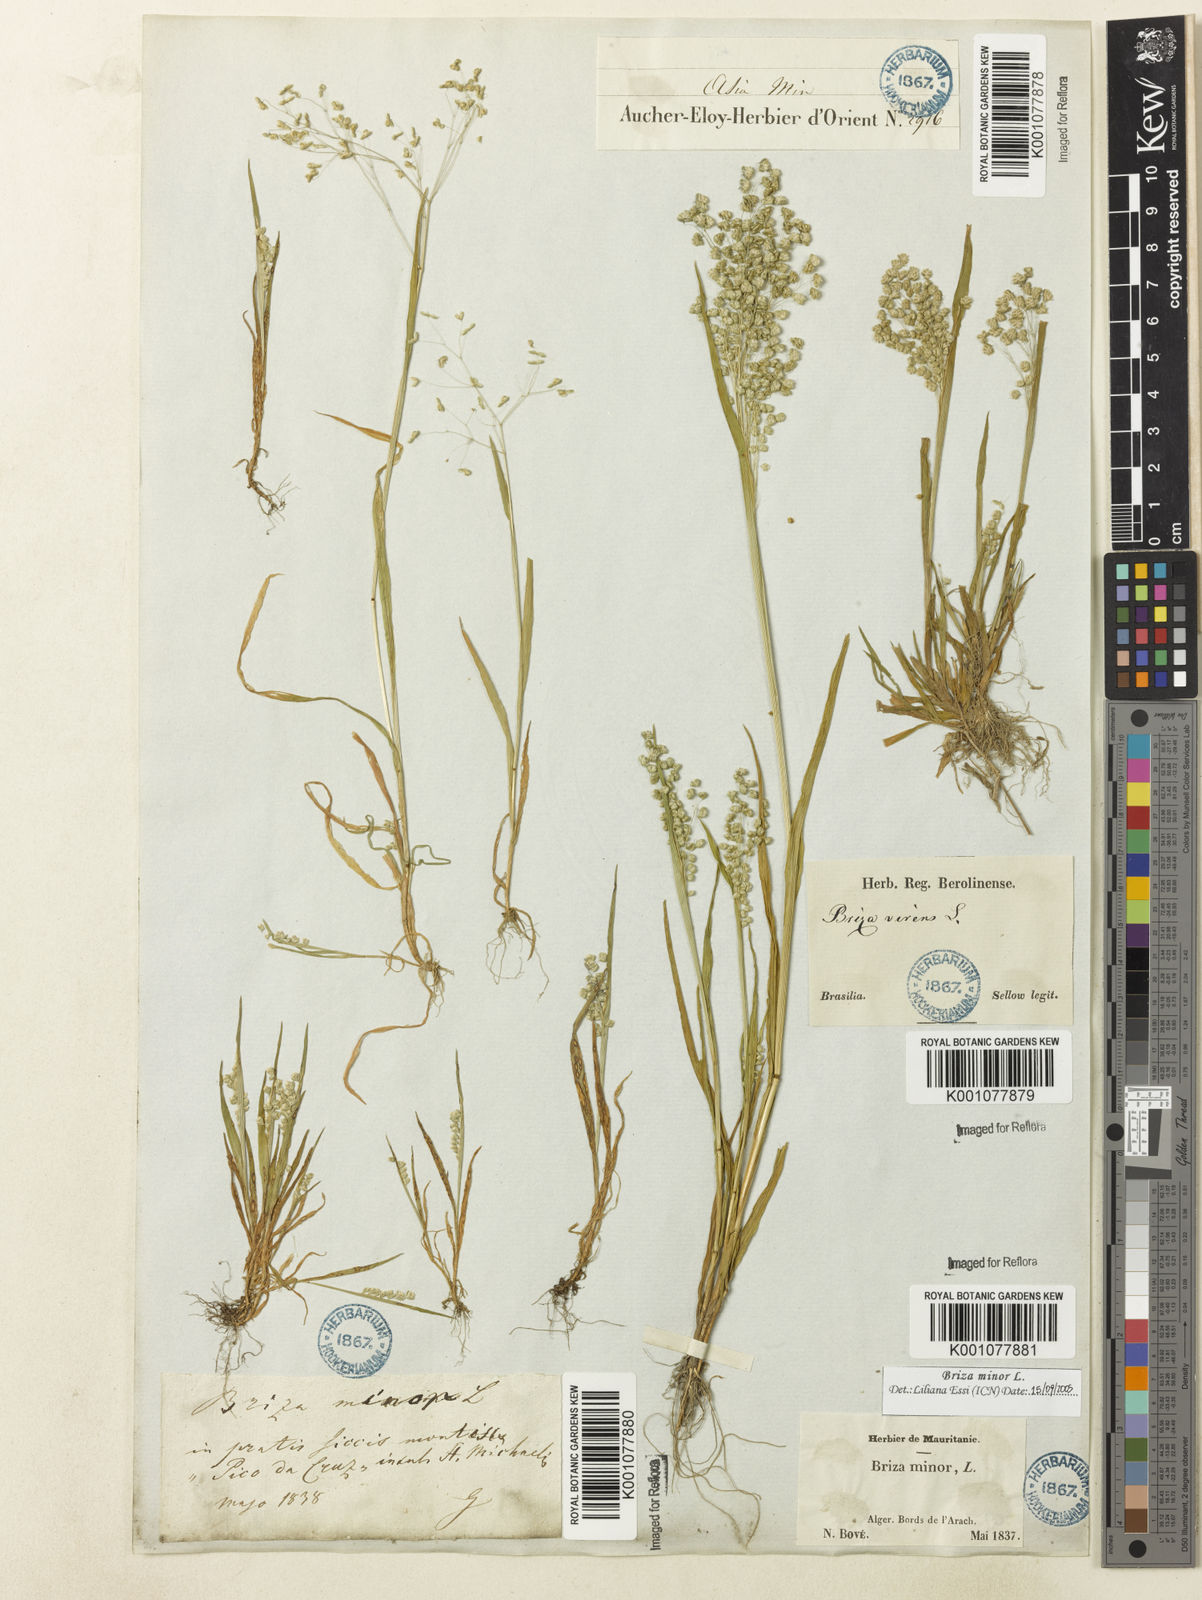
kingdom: Plantae
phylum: Tracheophyta
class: Liliopsida
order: Poales
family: Poaceae
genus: Briza
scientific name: Briza minor
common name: Lesser quaking-grass
